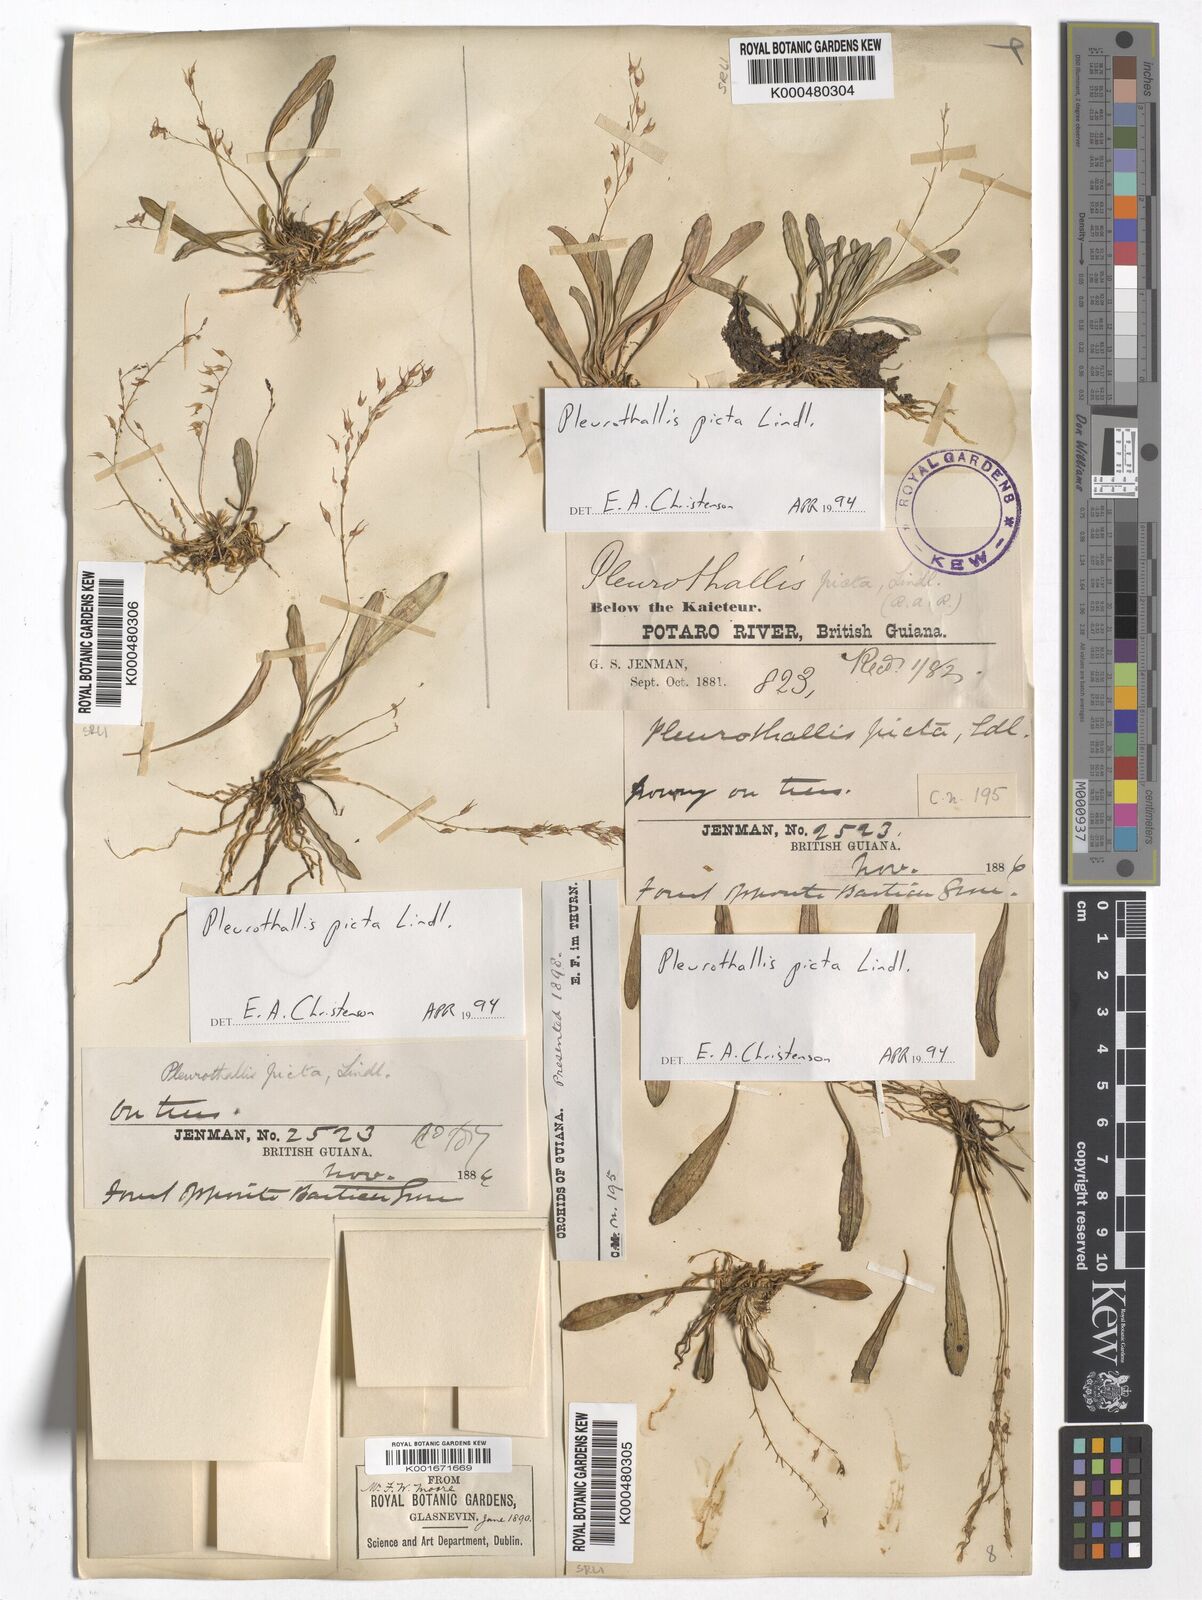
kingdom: Plantae
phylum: Tracheophyta
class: Liliopsida
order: Asparagales
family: Orchidaceae
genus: Specklinia
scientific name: Specklinia picta
